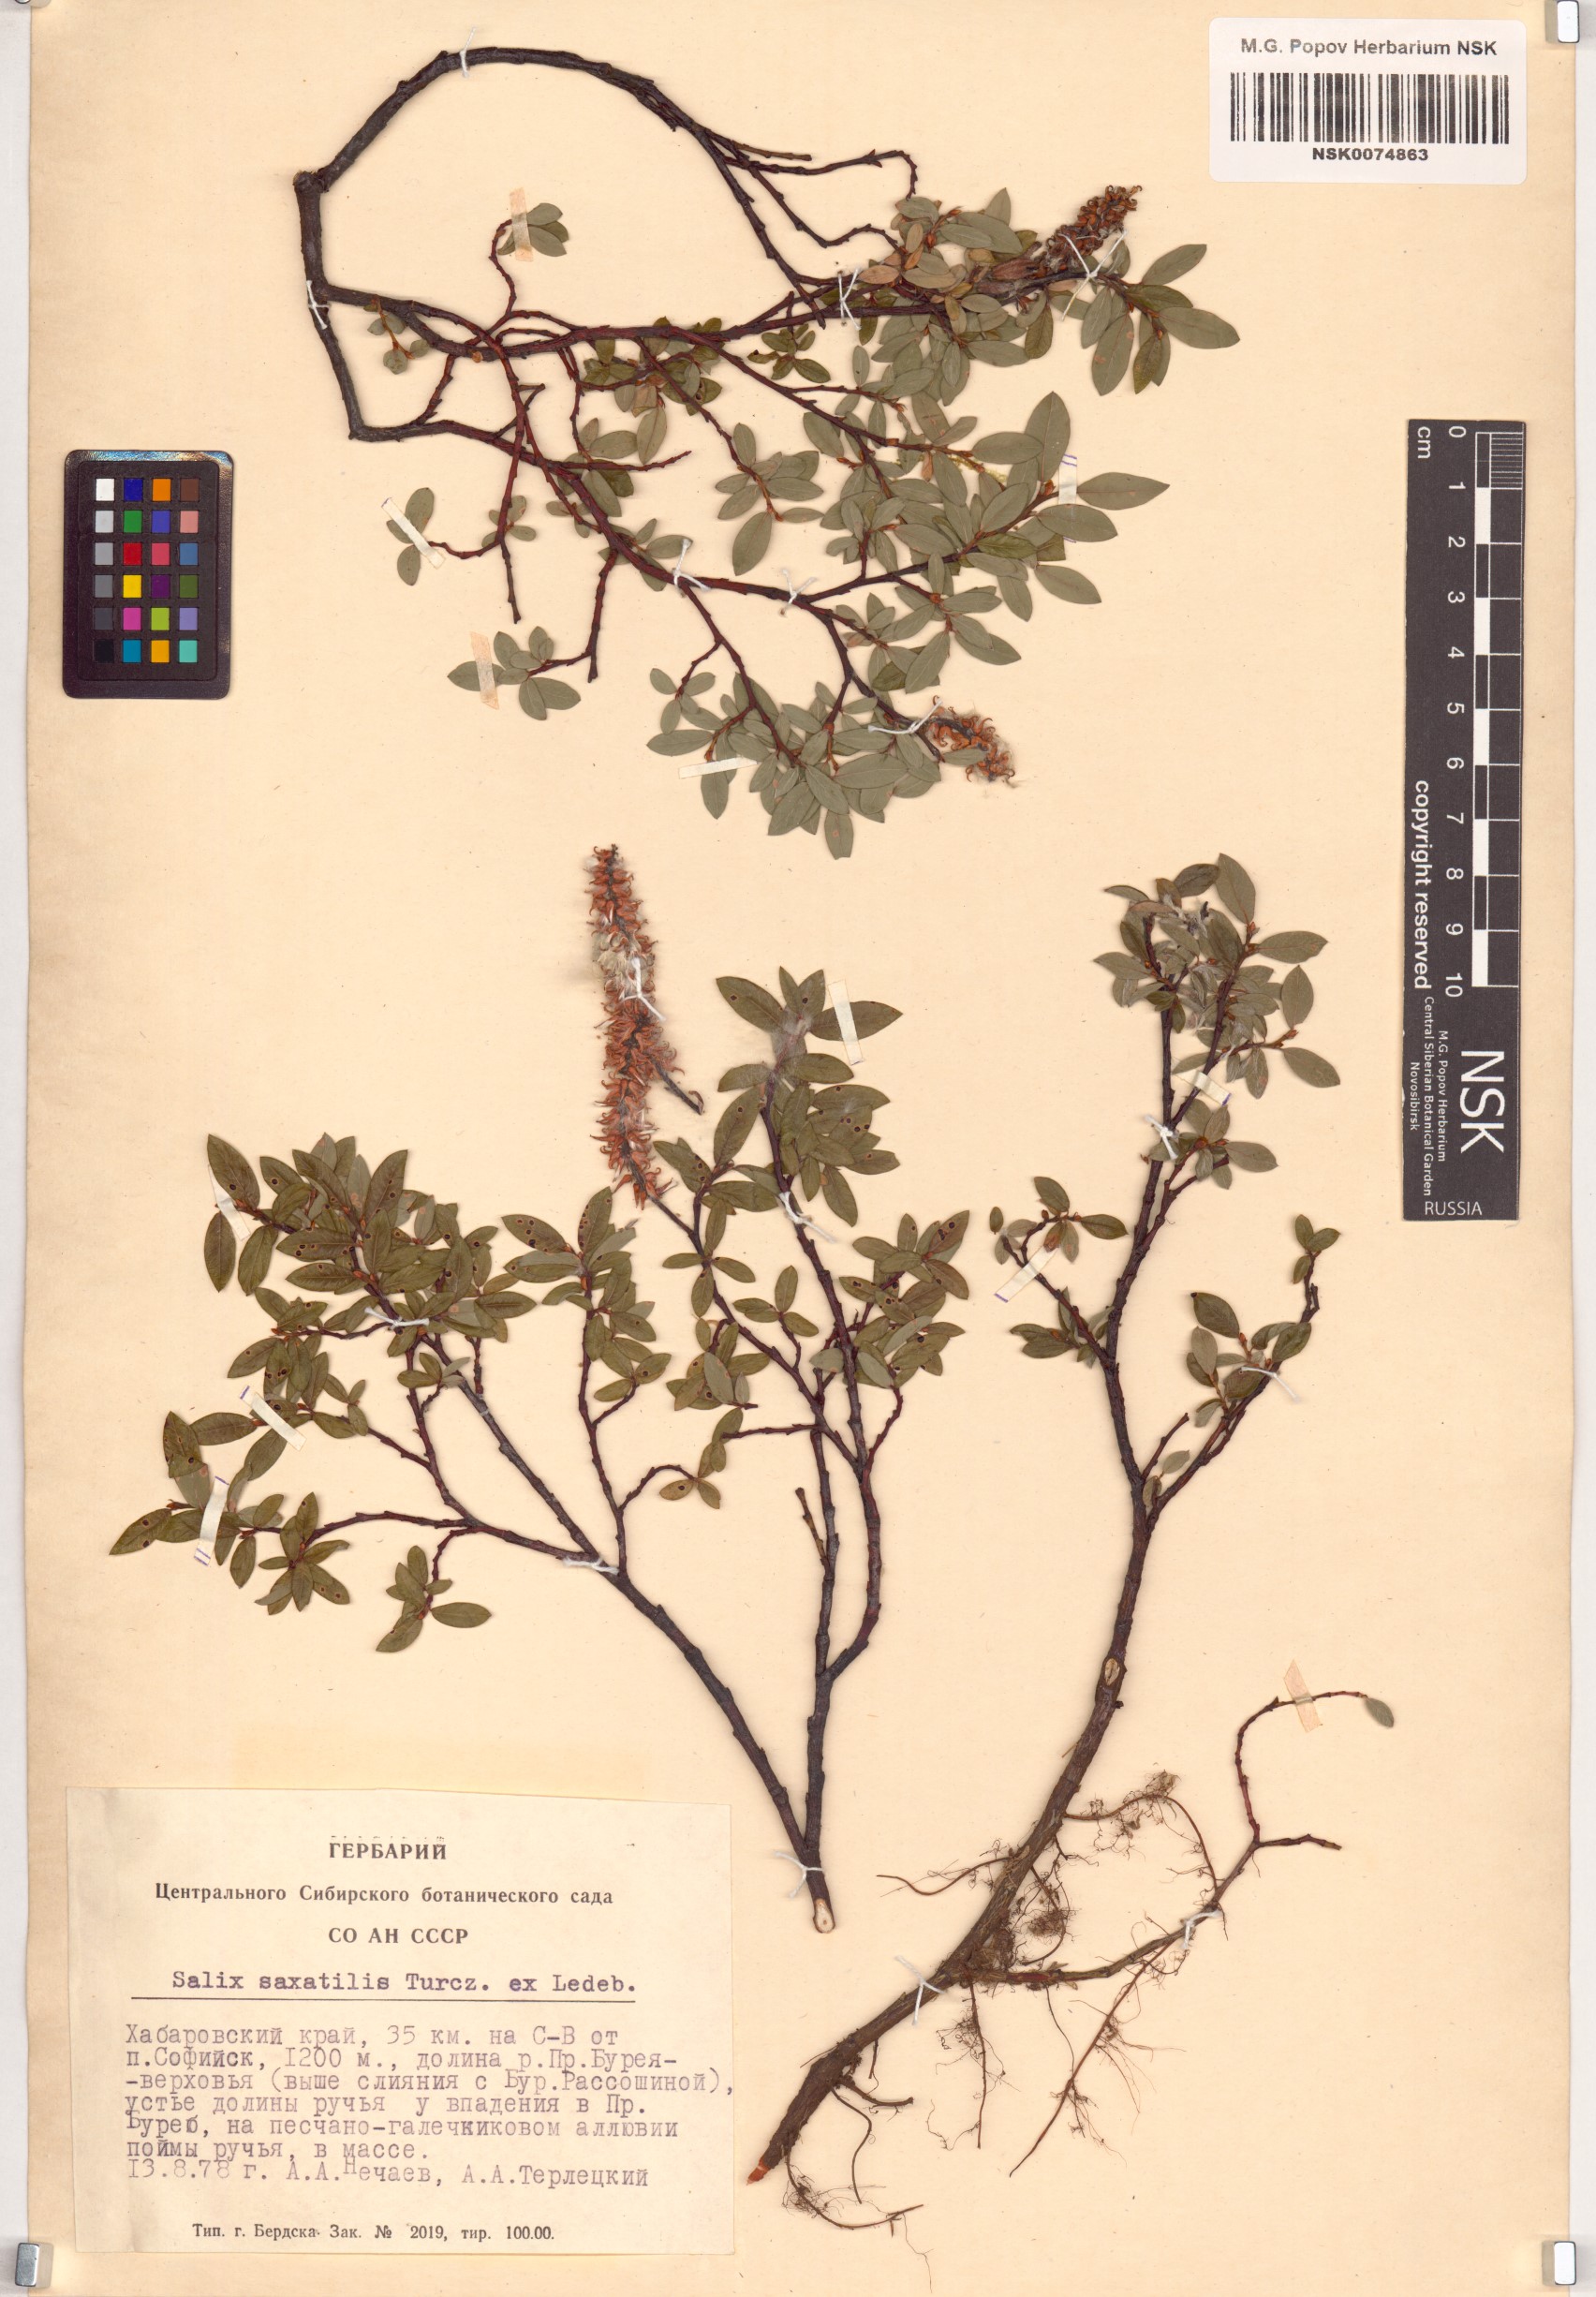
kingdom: Plantae
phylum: Tracheophyta
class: Magnoliopsida
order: Malpighiales
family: Salicaceae
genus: Salix
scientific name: Salix saxatilis
